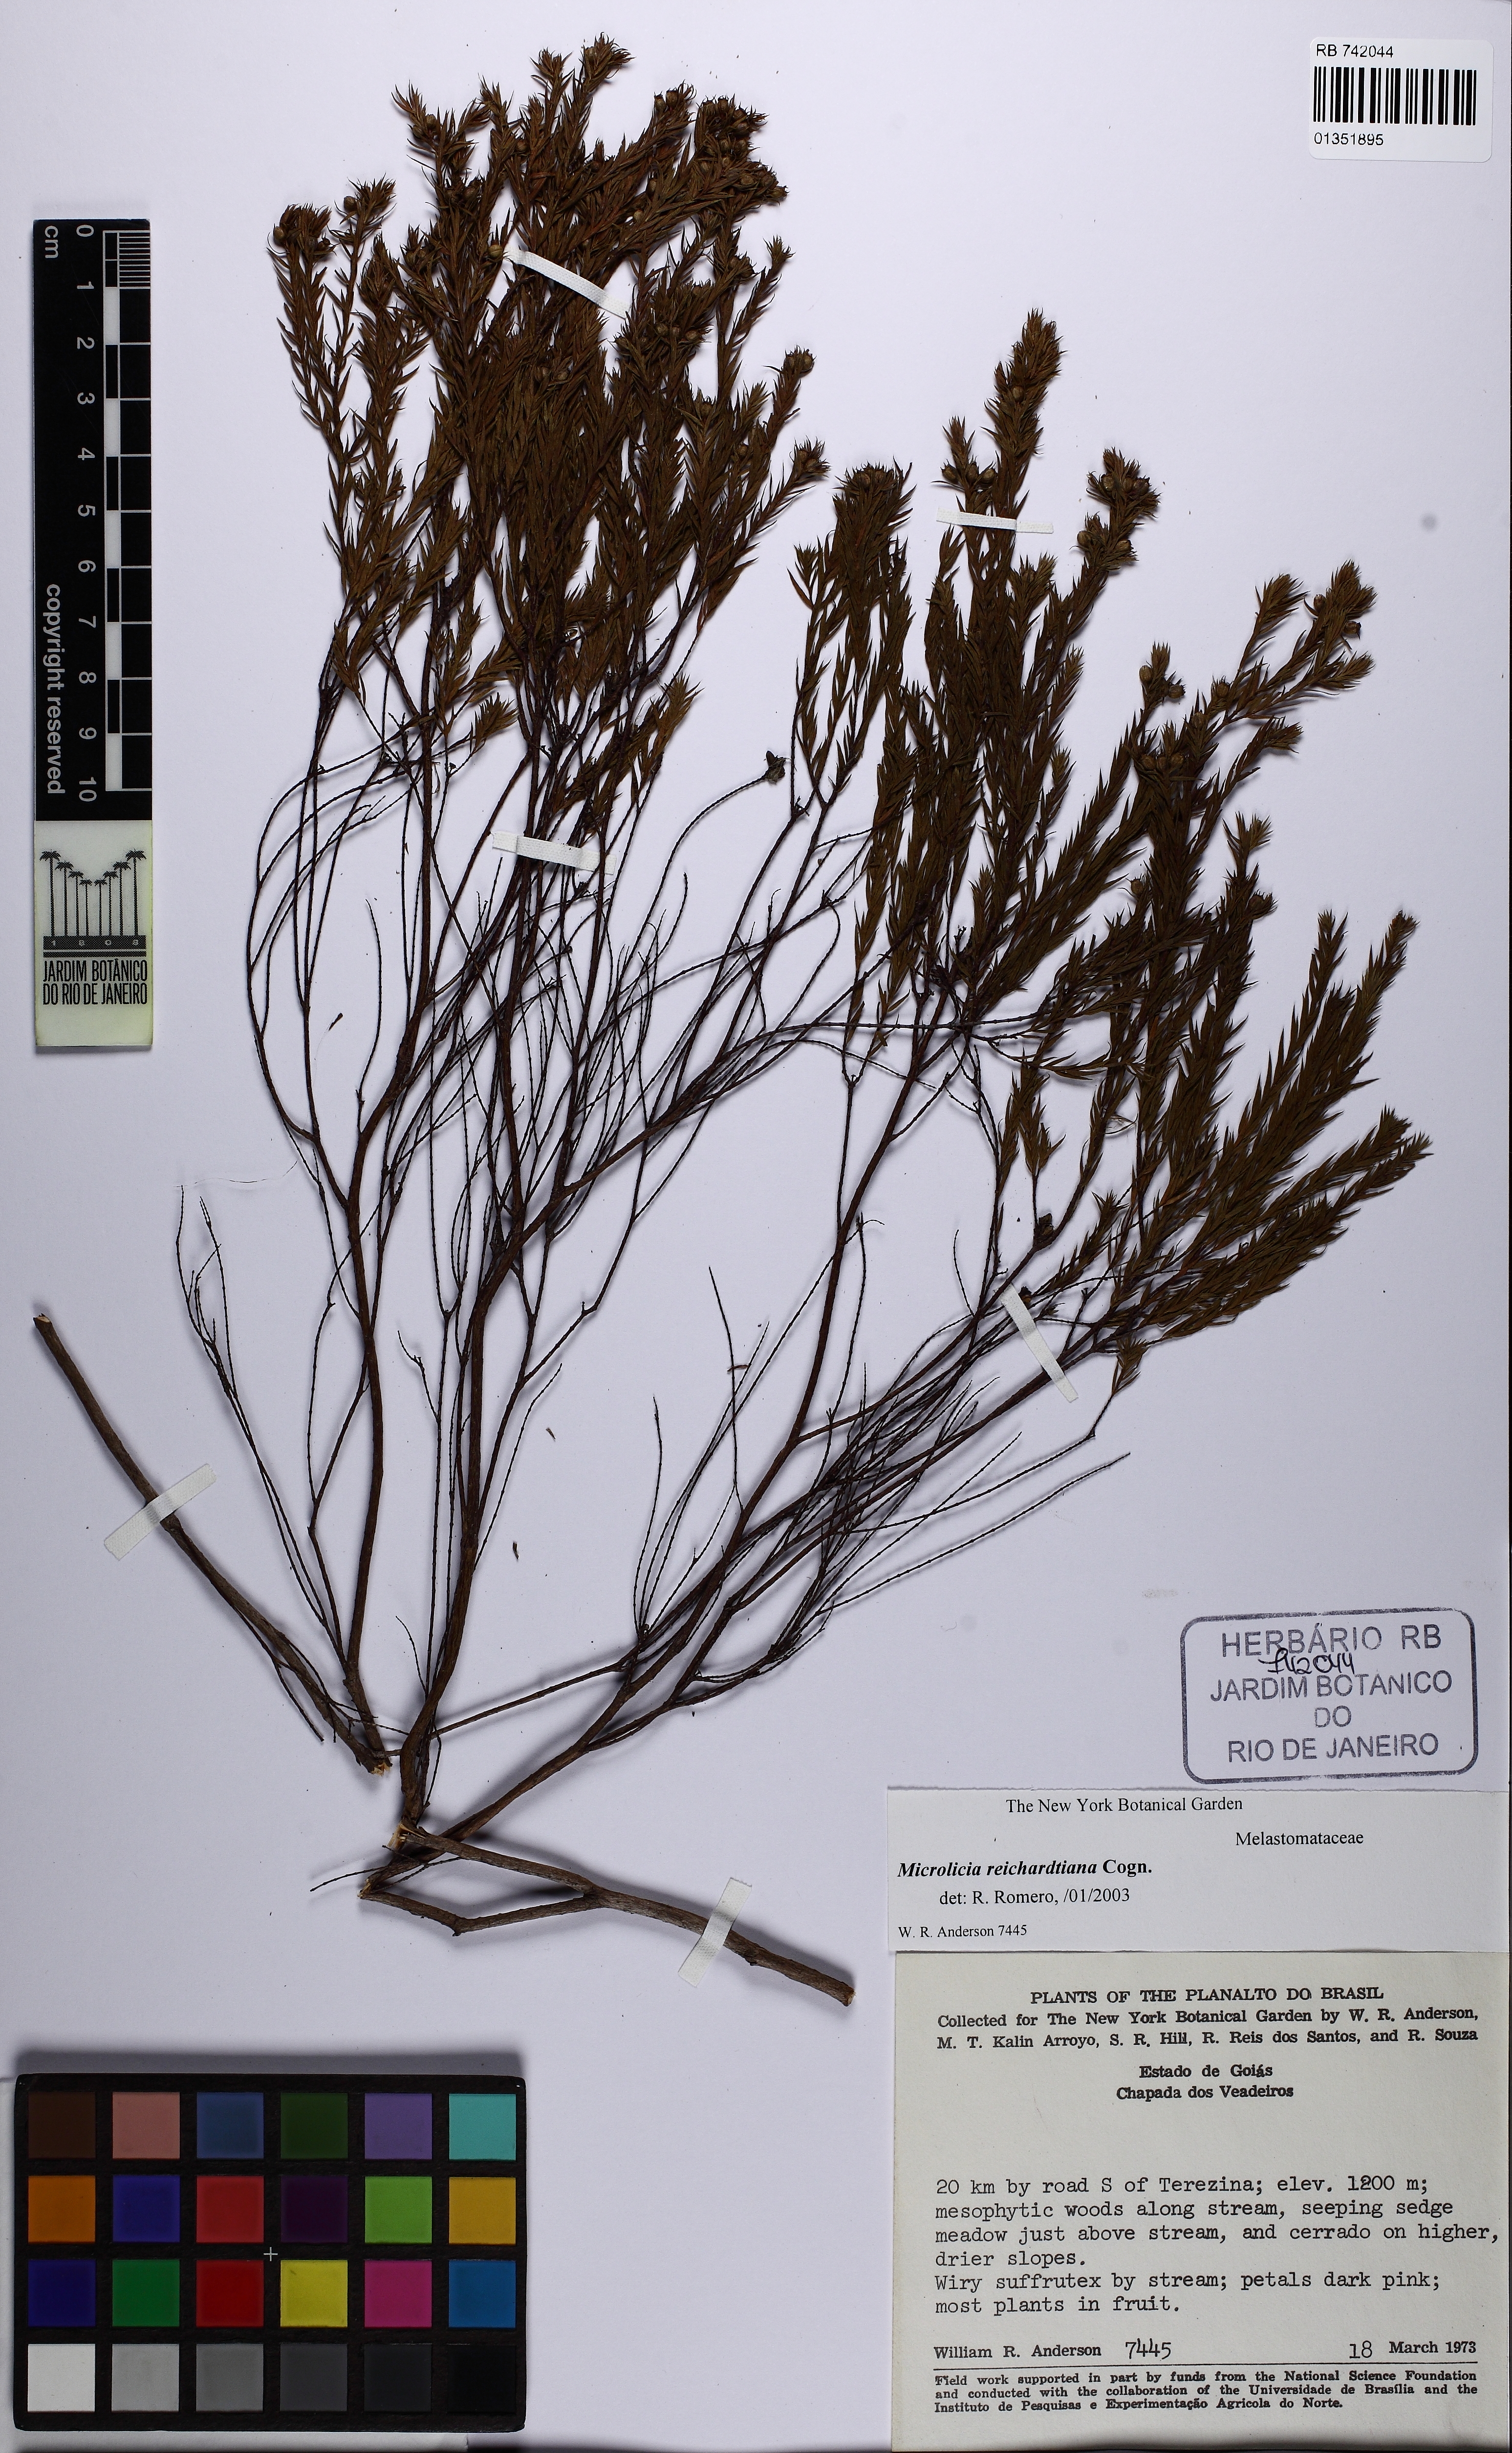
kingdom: Plantae
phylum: Tracheophyta
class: Magnoliopsida
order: Myrtales
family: Melastomataceae
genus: Microlicia
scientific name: Microlicia setosa
